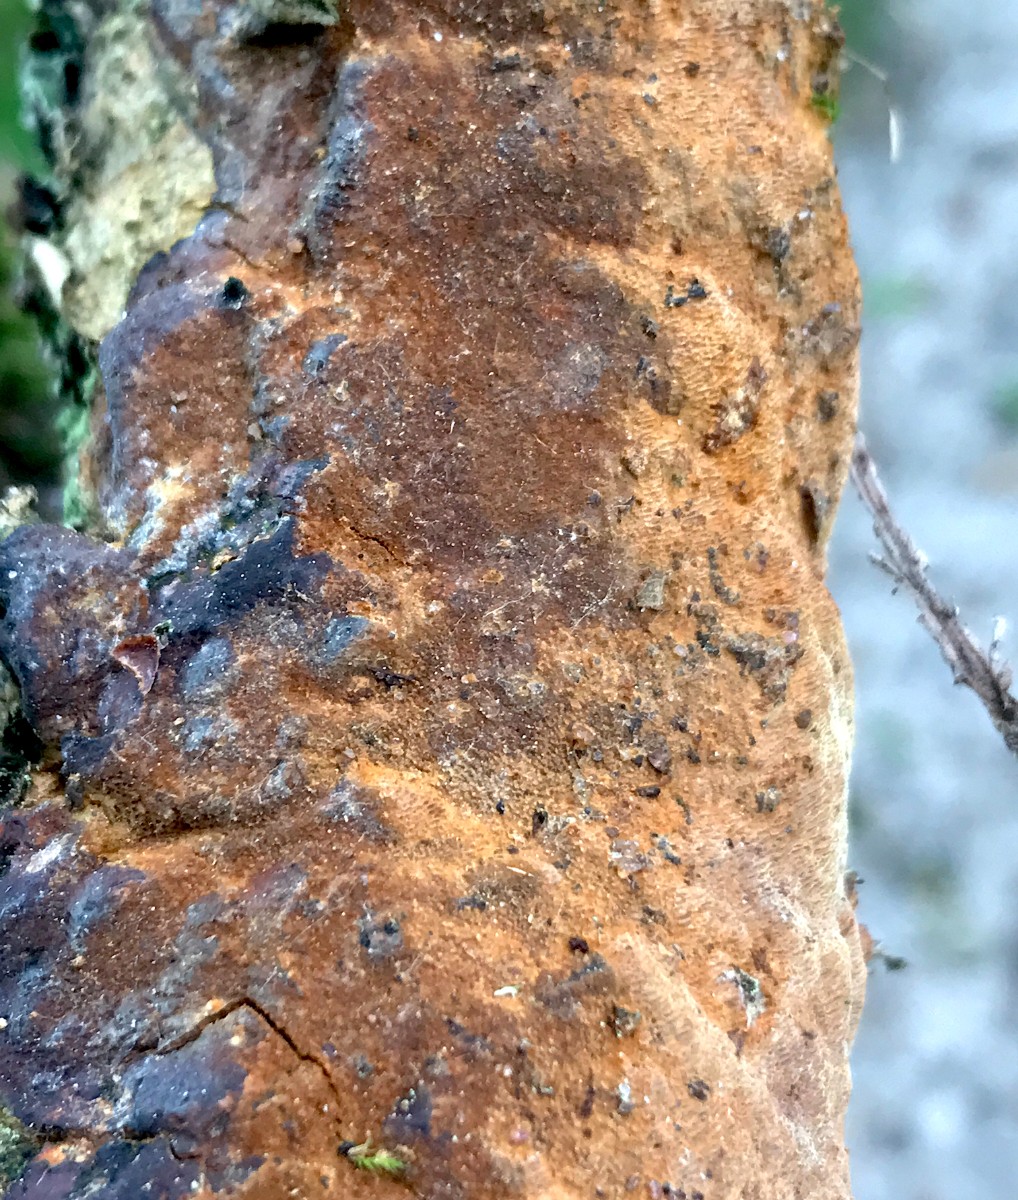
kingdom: Fungi
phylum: Basidiomycota
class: Agaricomycetes
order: Hymenochaetales
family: Hymenochaetaceae
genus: Fuscoporia
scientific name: Fuscoporia ferrea
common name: skorpe-ildporesvamp
